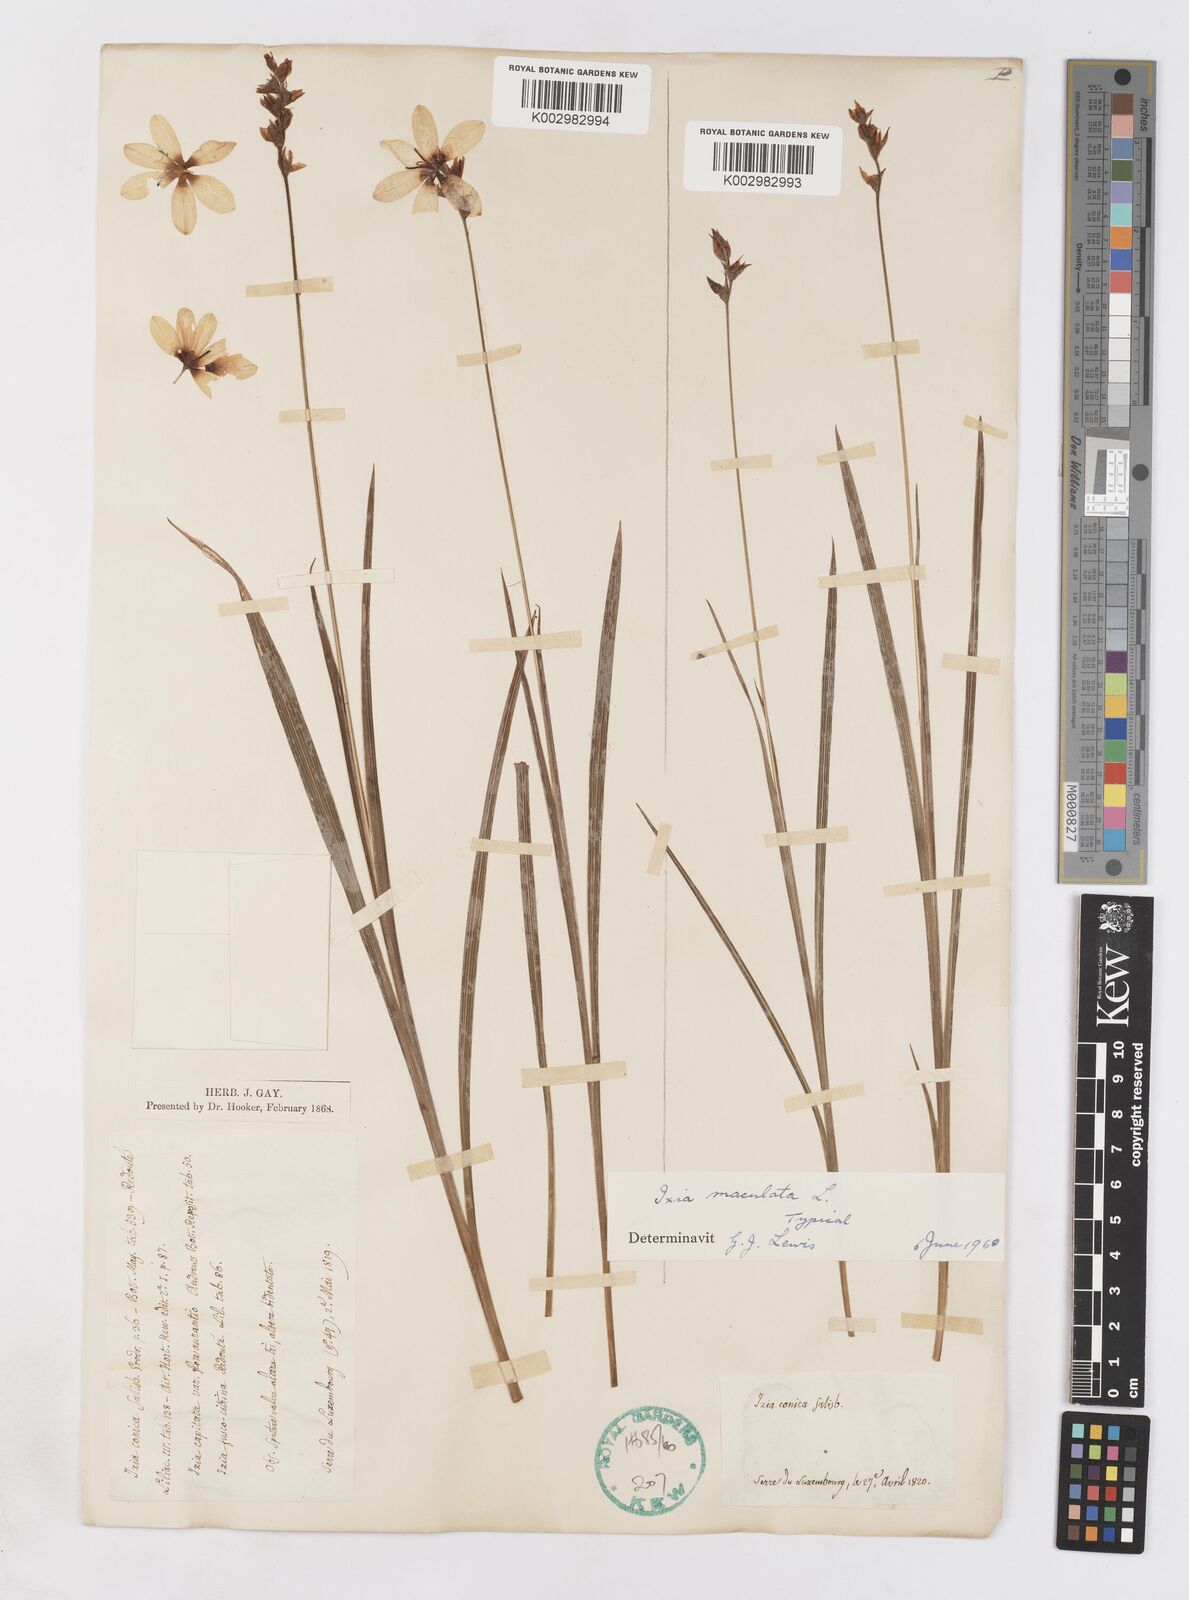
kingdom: Plantae
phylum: Tracheophyta
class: Liliopsida
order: Asparagales
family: Iridaceae
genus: Ixia
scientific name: Ixia maculata
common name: Spotted african cornlily
